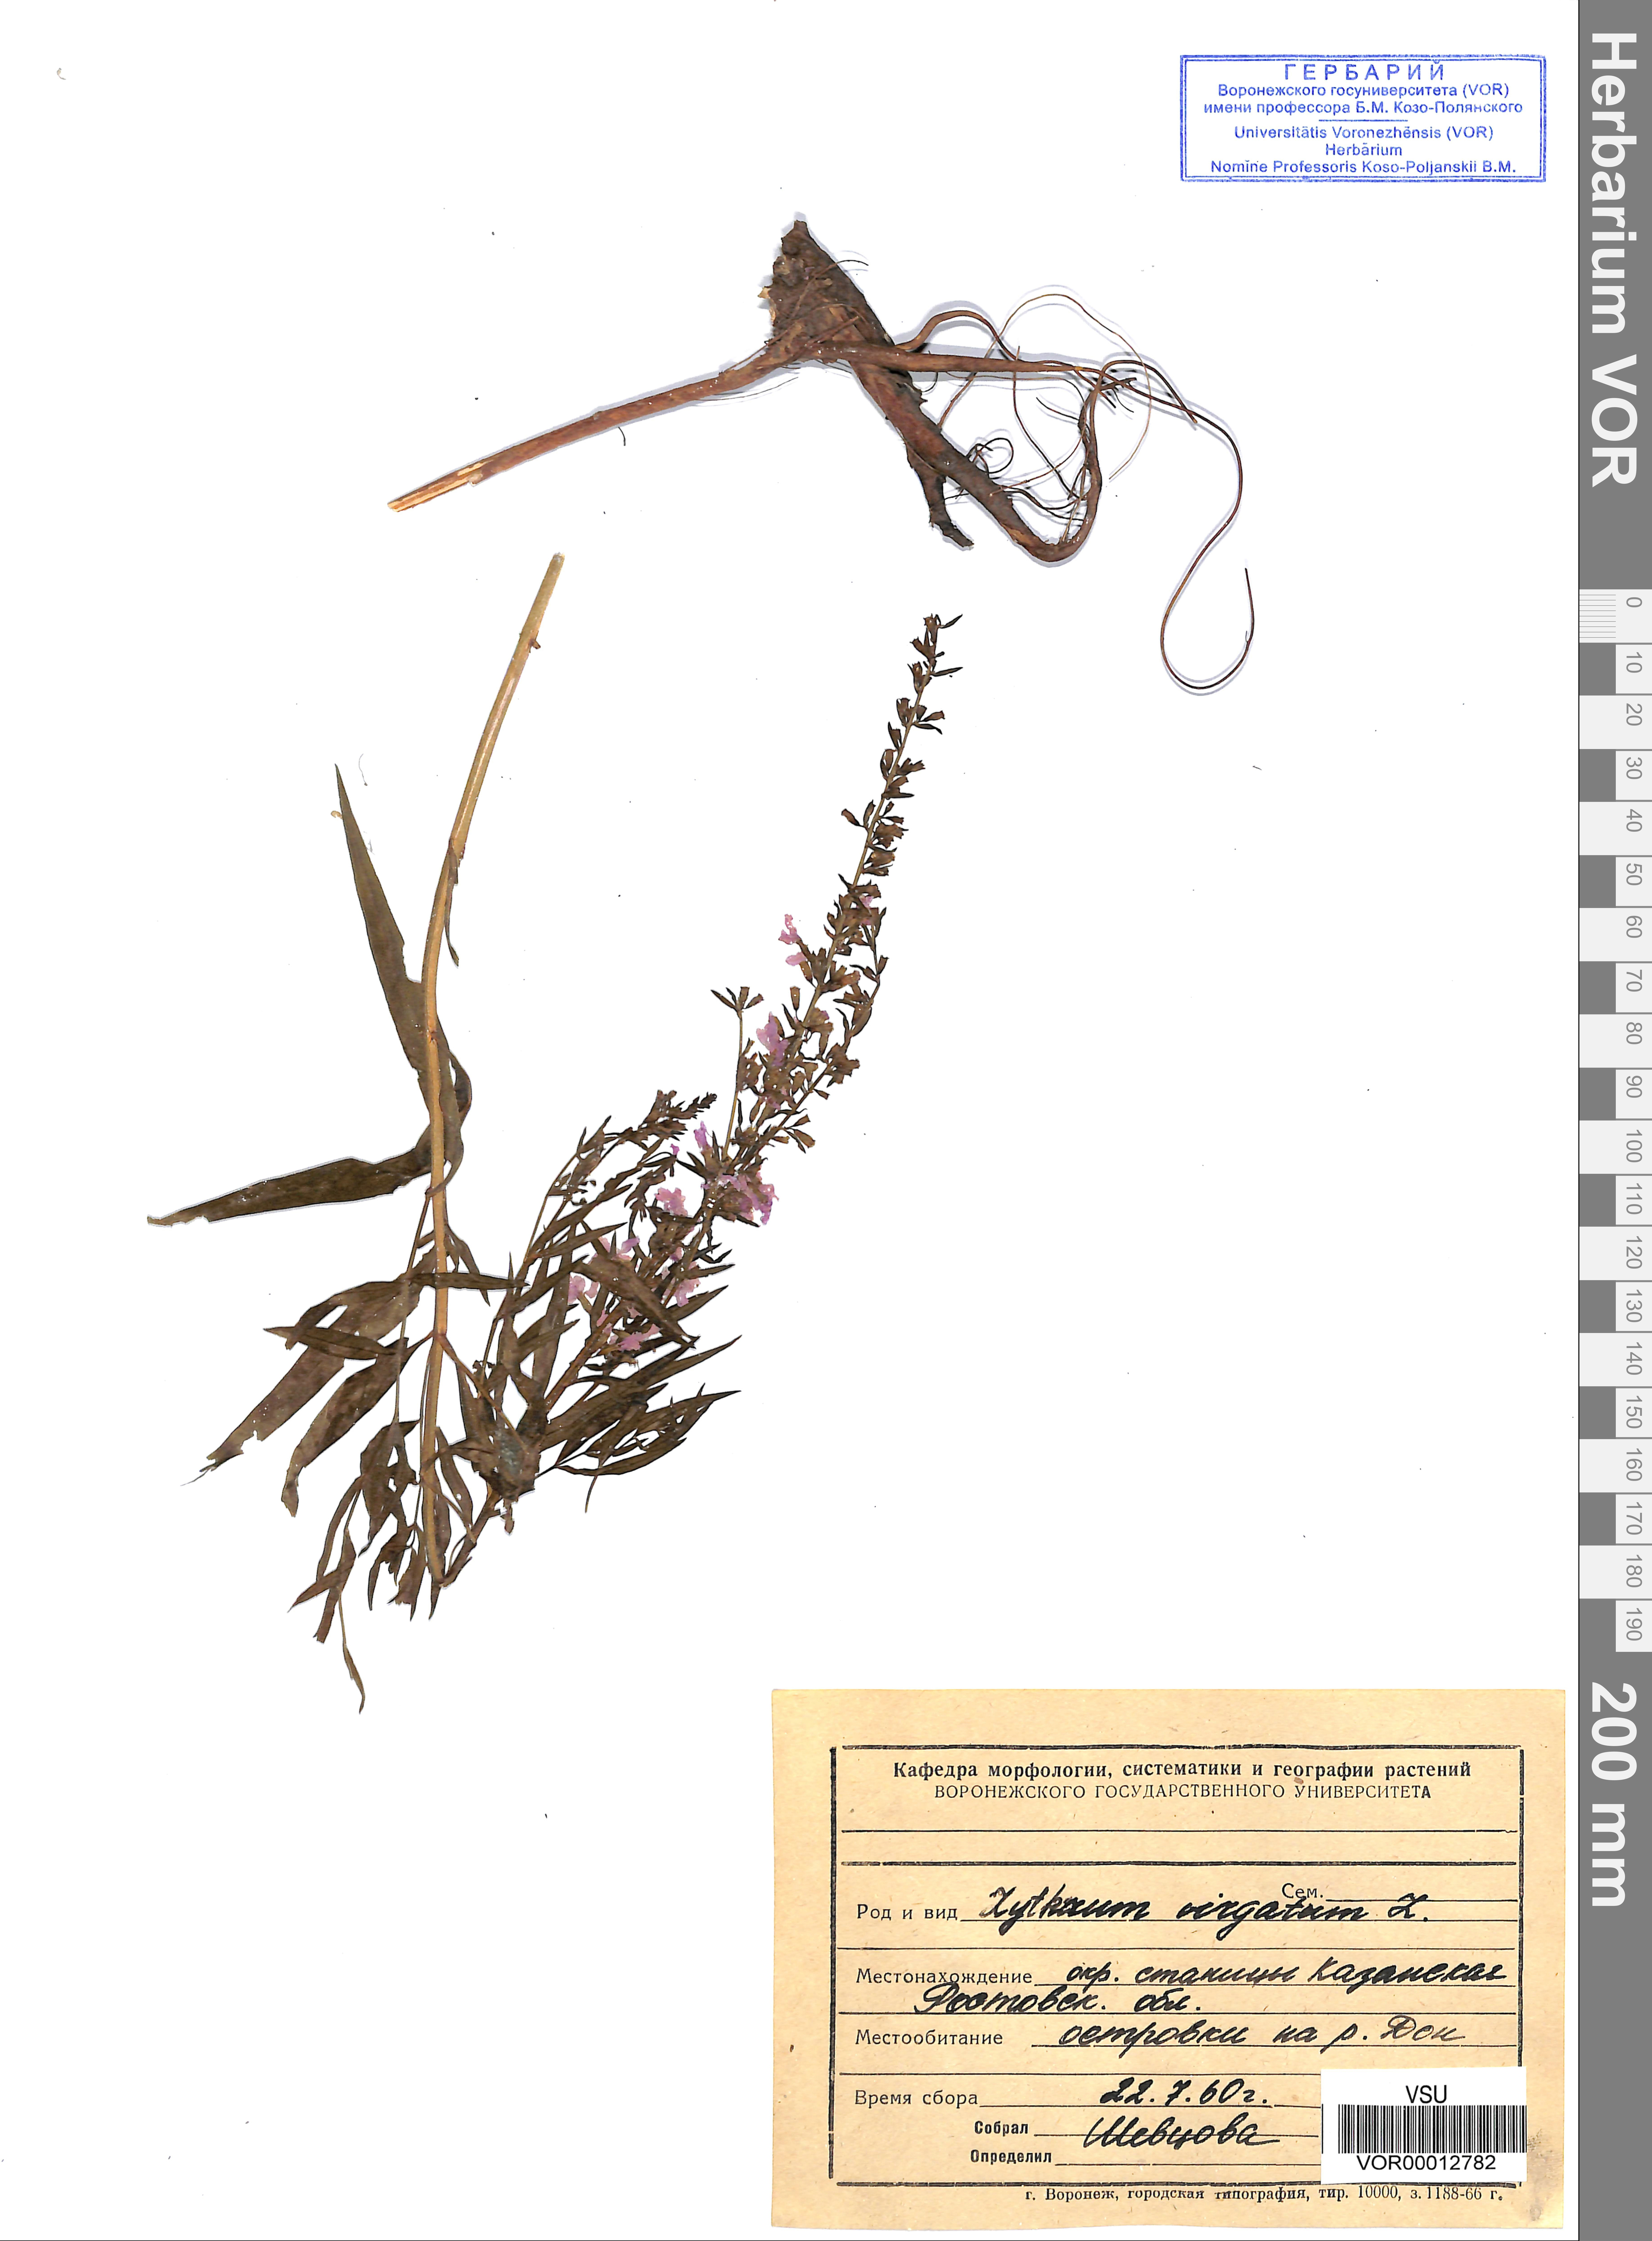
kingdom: Plantae
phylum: Tracheophyta
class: Magnoliopsida
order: Myrtales
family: Lythraceae
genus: Lythrum
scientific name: Lythrum virgatum
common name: European wand loosestrife
